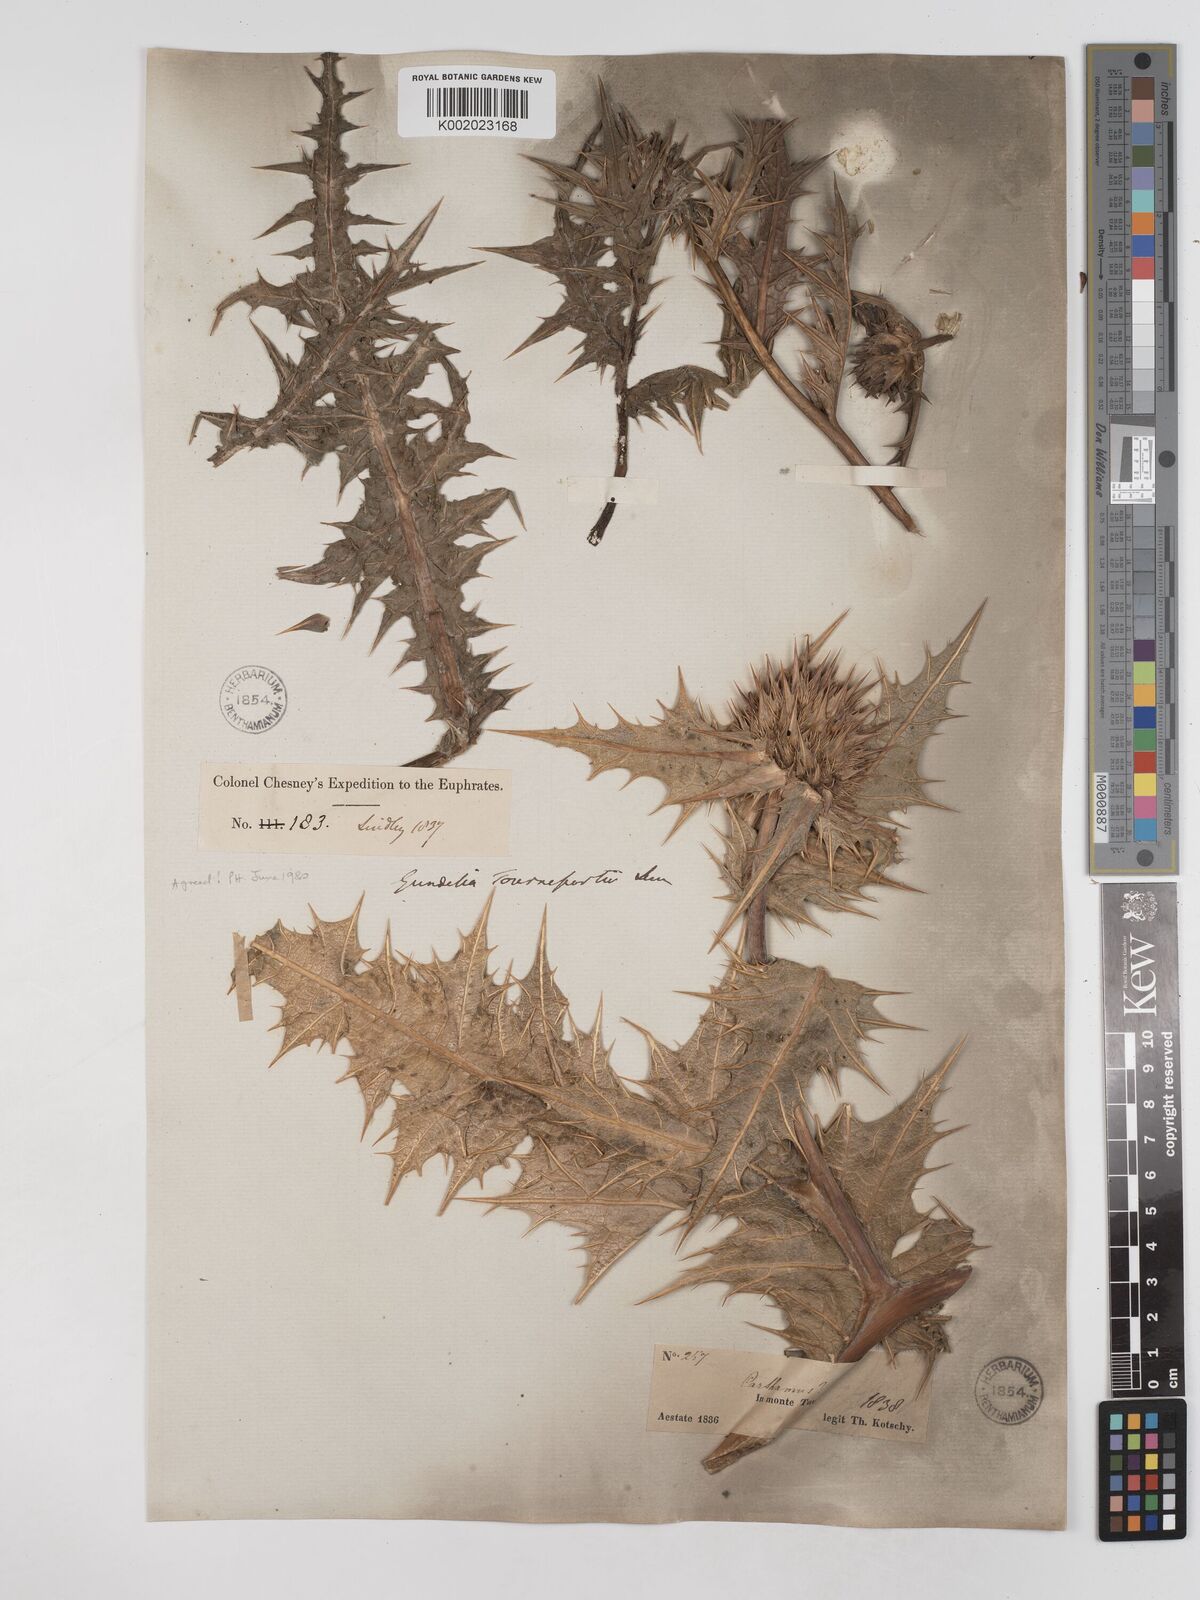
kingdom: Plantae
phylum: Tracheophyta
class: Magnoliopsida
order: Asterales
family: Asteraceae
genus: Gundelia
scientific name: Gundelia tournefortii
